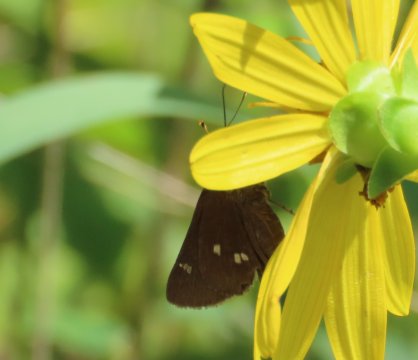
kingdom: Animalia
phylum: Arthropoda
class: Insecta
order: Lepidoptera
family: Hesperiidae
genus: Oligoria
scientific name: Oligoria maculata
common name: Twin-spot Skipper
